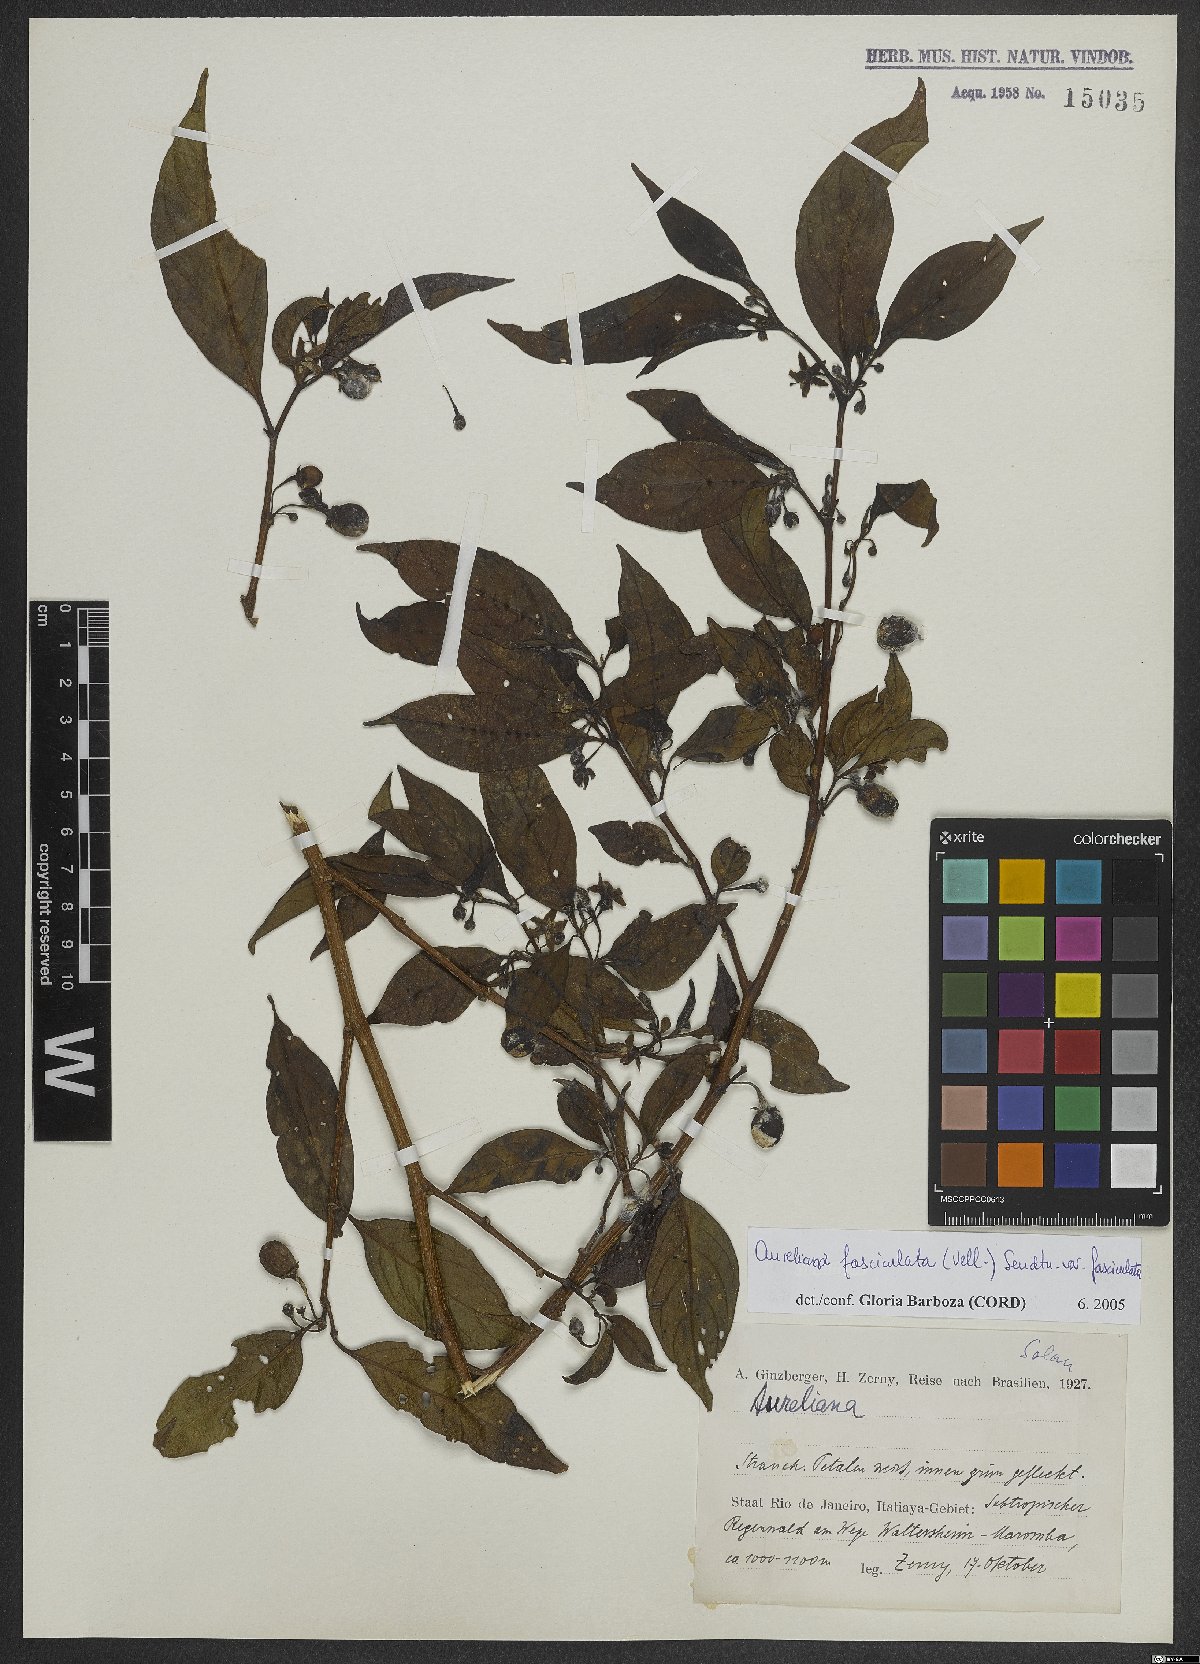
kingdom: Plantae
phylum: Tracheophyta
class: Magnoliopsida
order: Solanales
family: Solanaceae
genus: Athenaea
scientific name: Athenaea fasciculata
